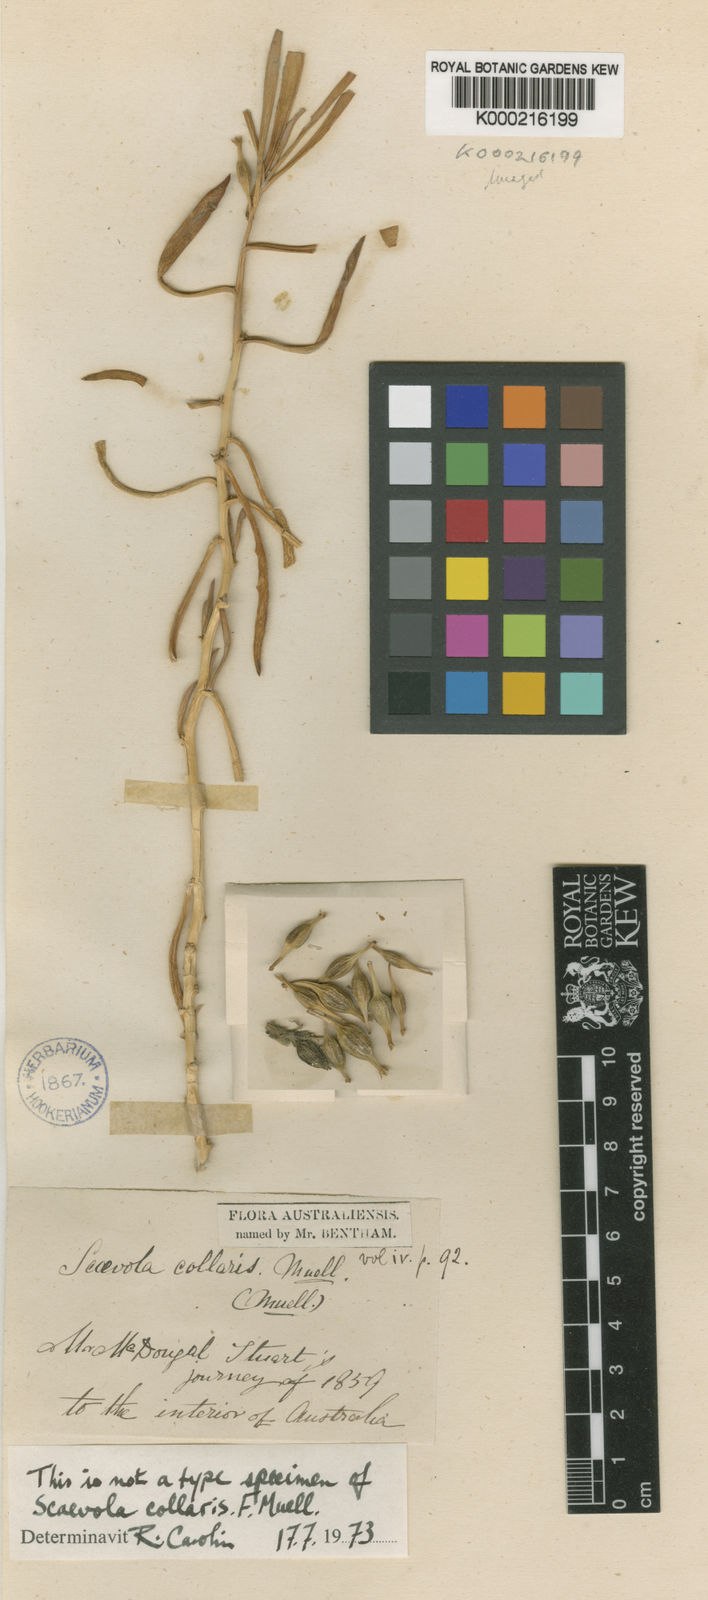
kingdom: Plantae
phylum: Tracheophyta
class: Magnoliopsida
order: Asterales
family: Goodeniaceae
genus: Goodenia
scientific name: Goodenia collaris
